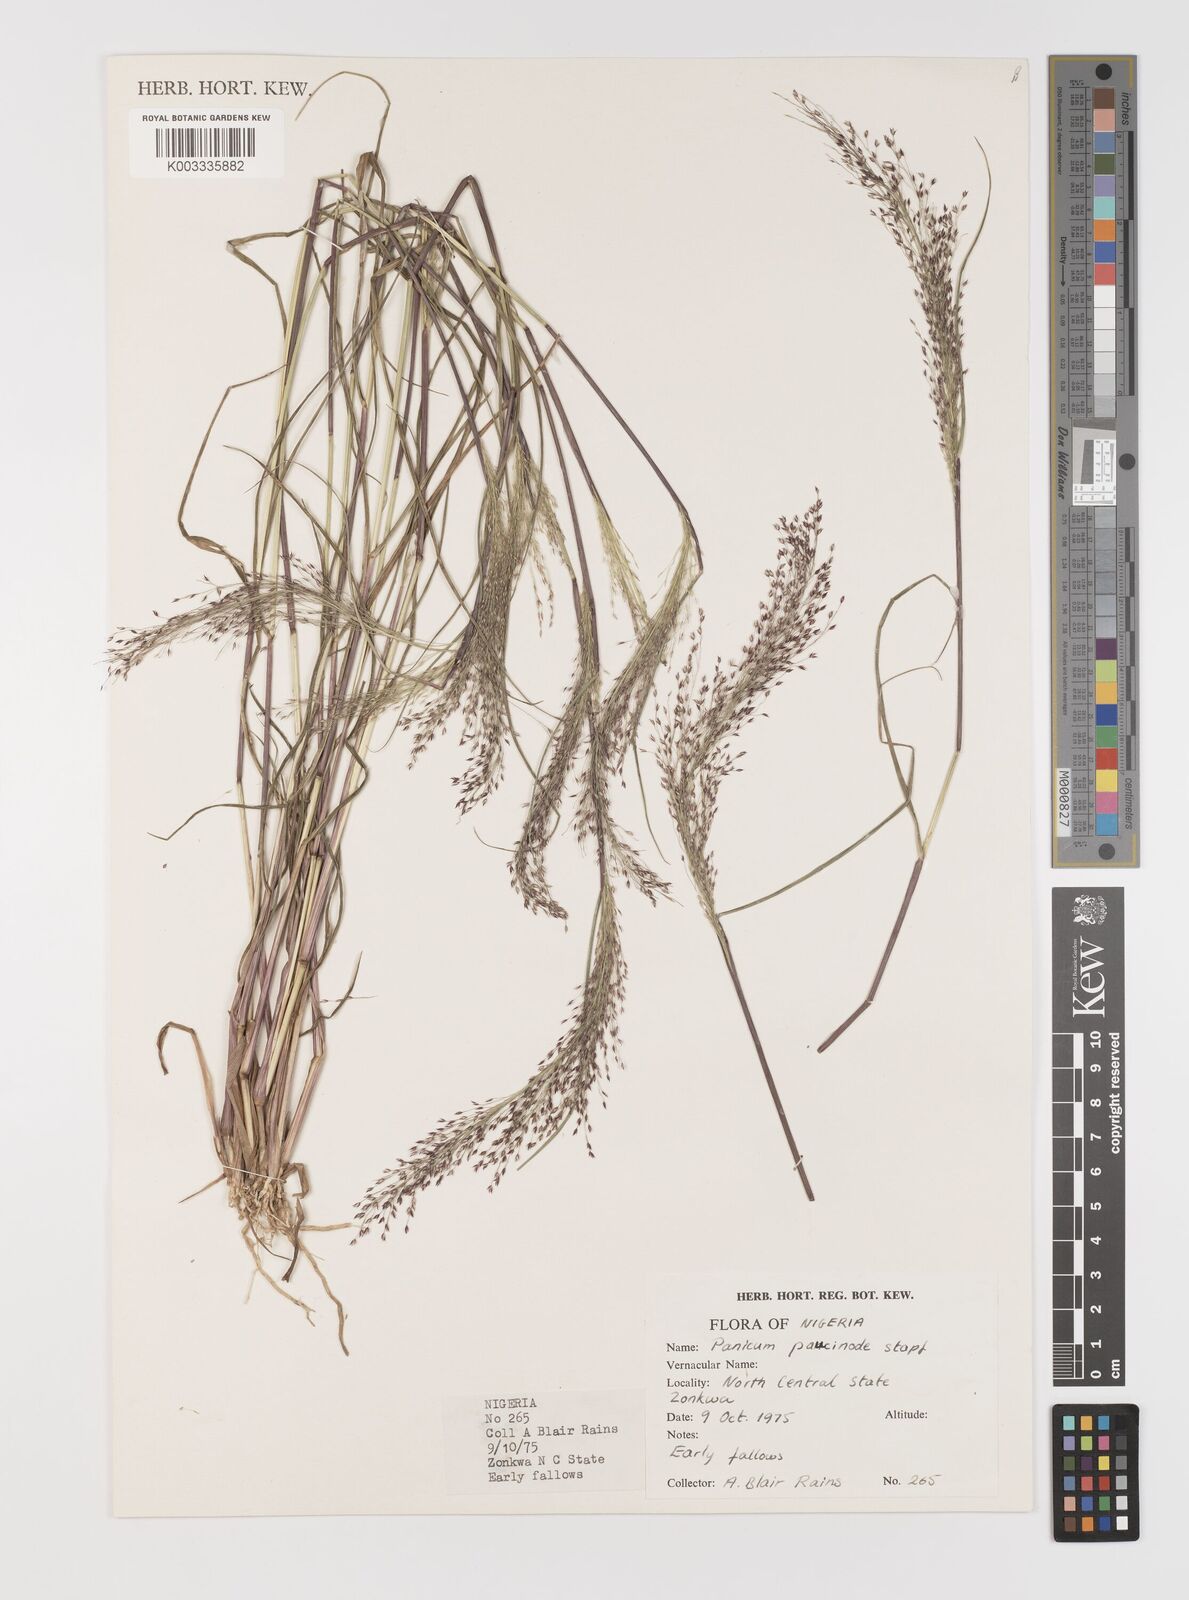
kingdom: Plantae
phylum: Tracheophyta
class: Liliopsida
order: Poales
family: Poaceae
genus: Panicum
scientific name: Panicum paucinode
